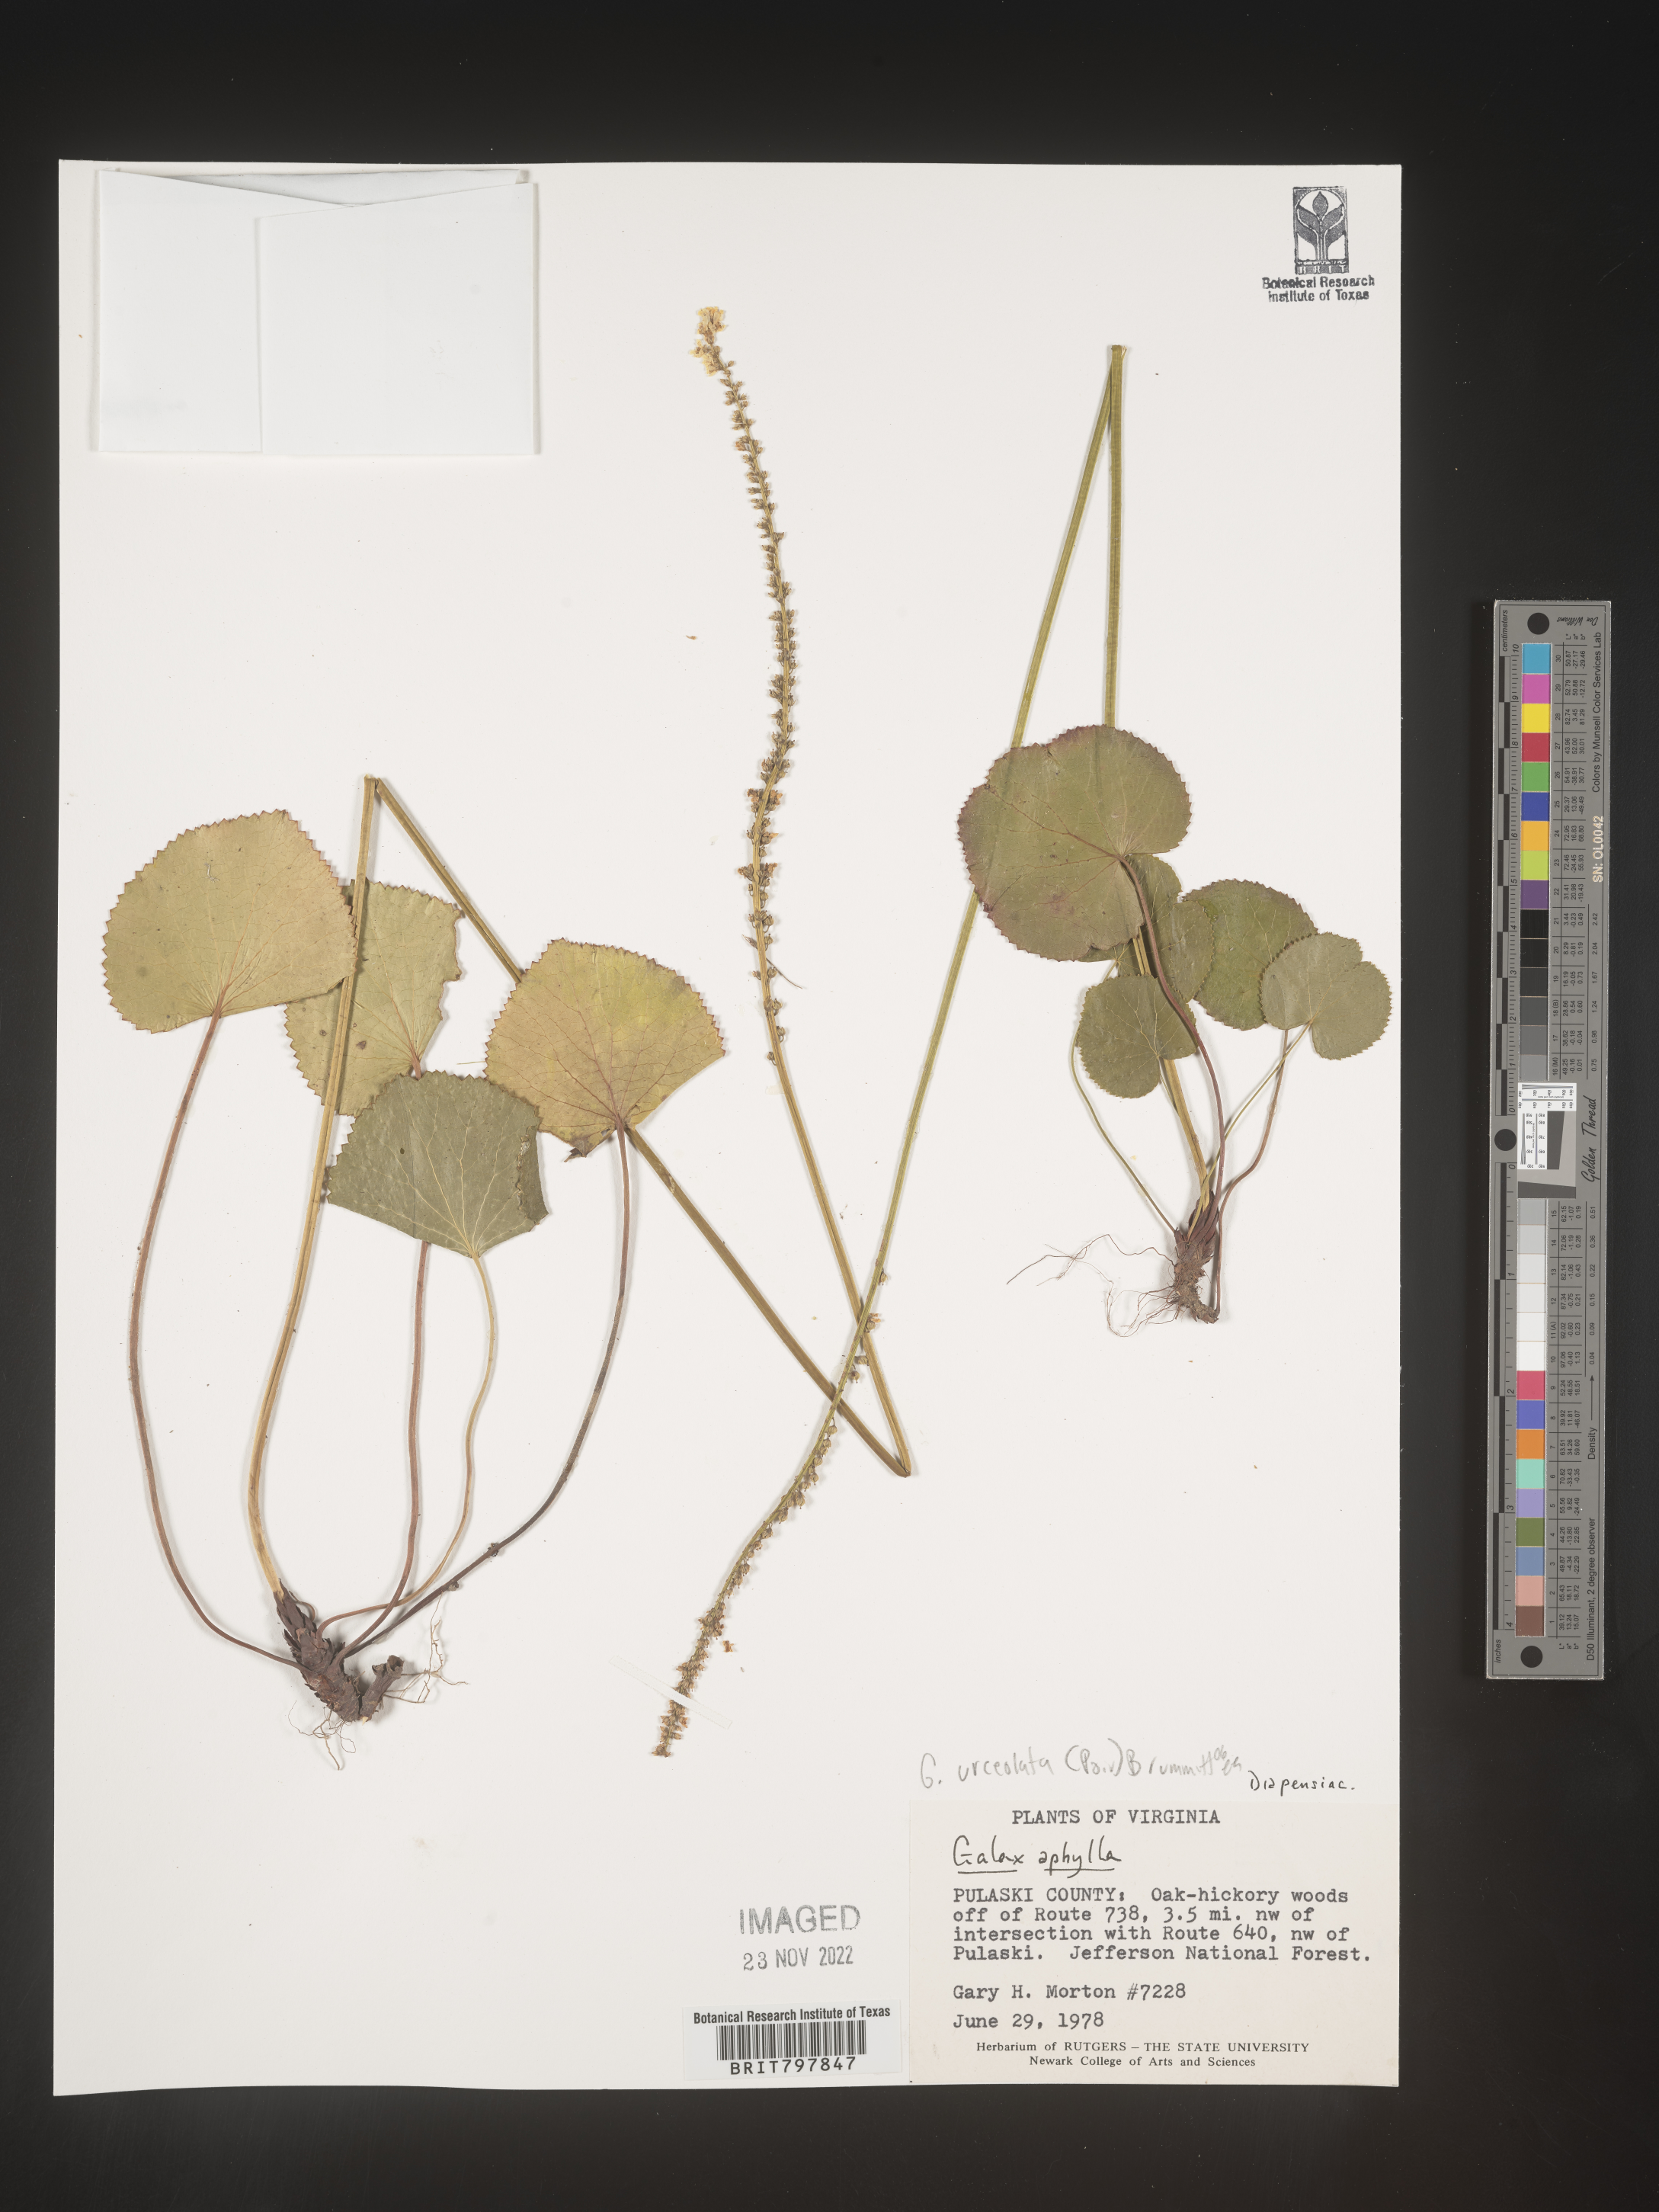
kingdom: Plantae
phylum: Tracheophyta
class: Magnoliopsida
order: Ericales
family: Diapensiaceae
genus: Galax
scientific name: Galax
